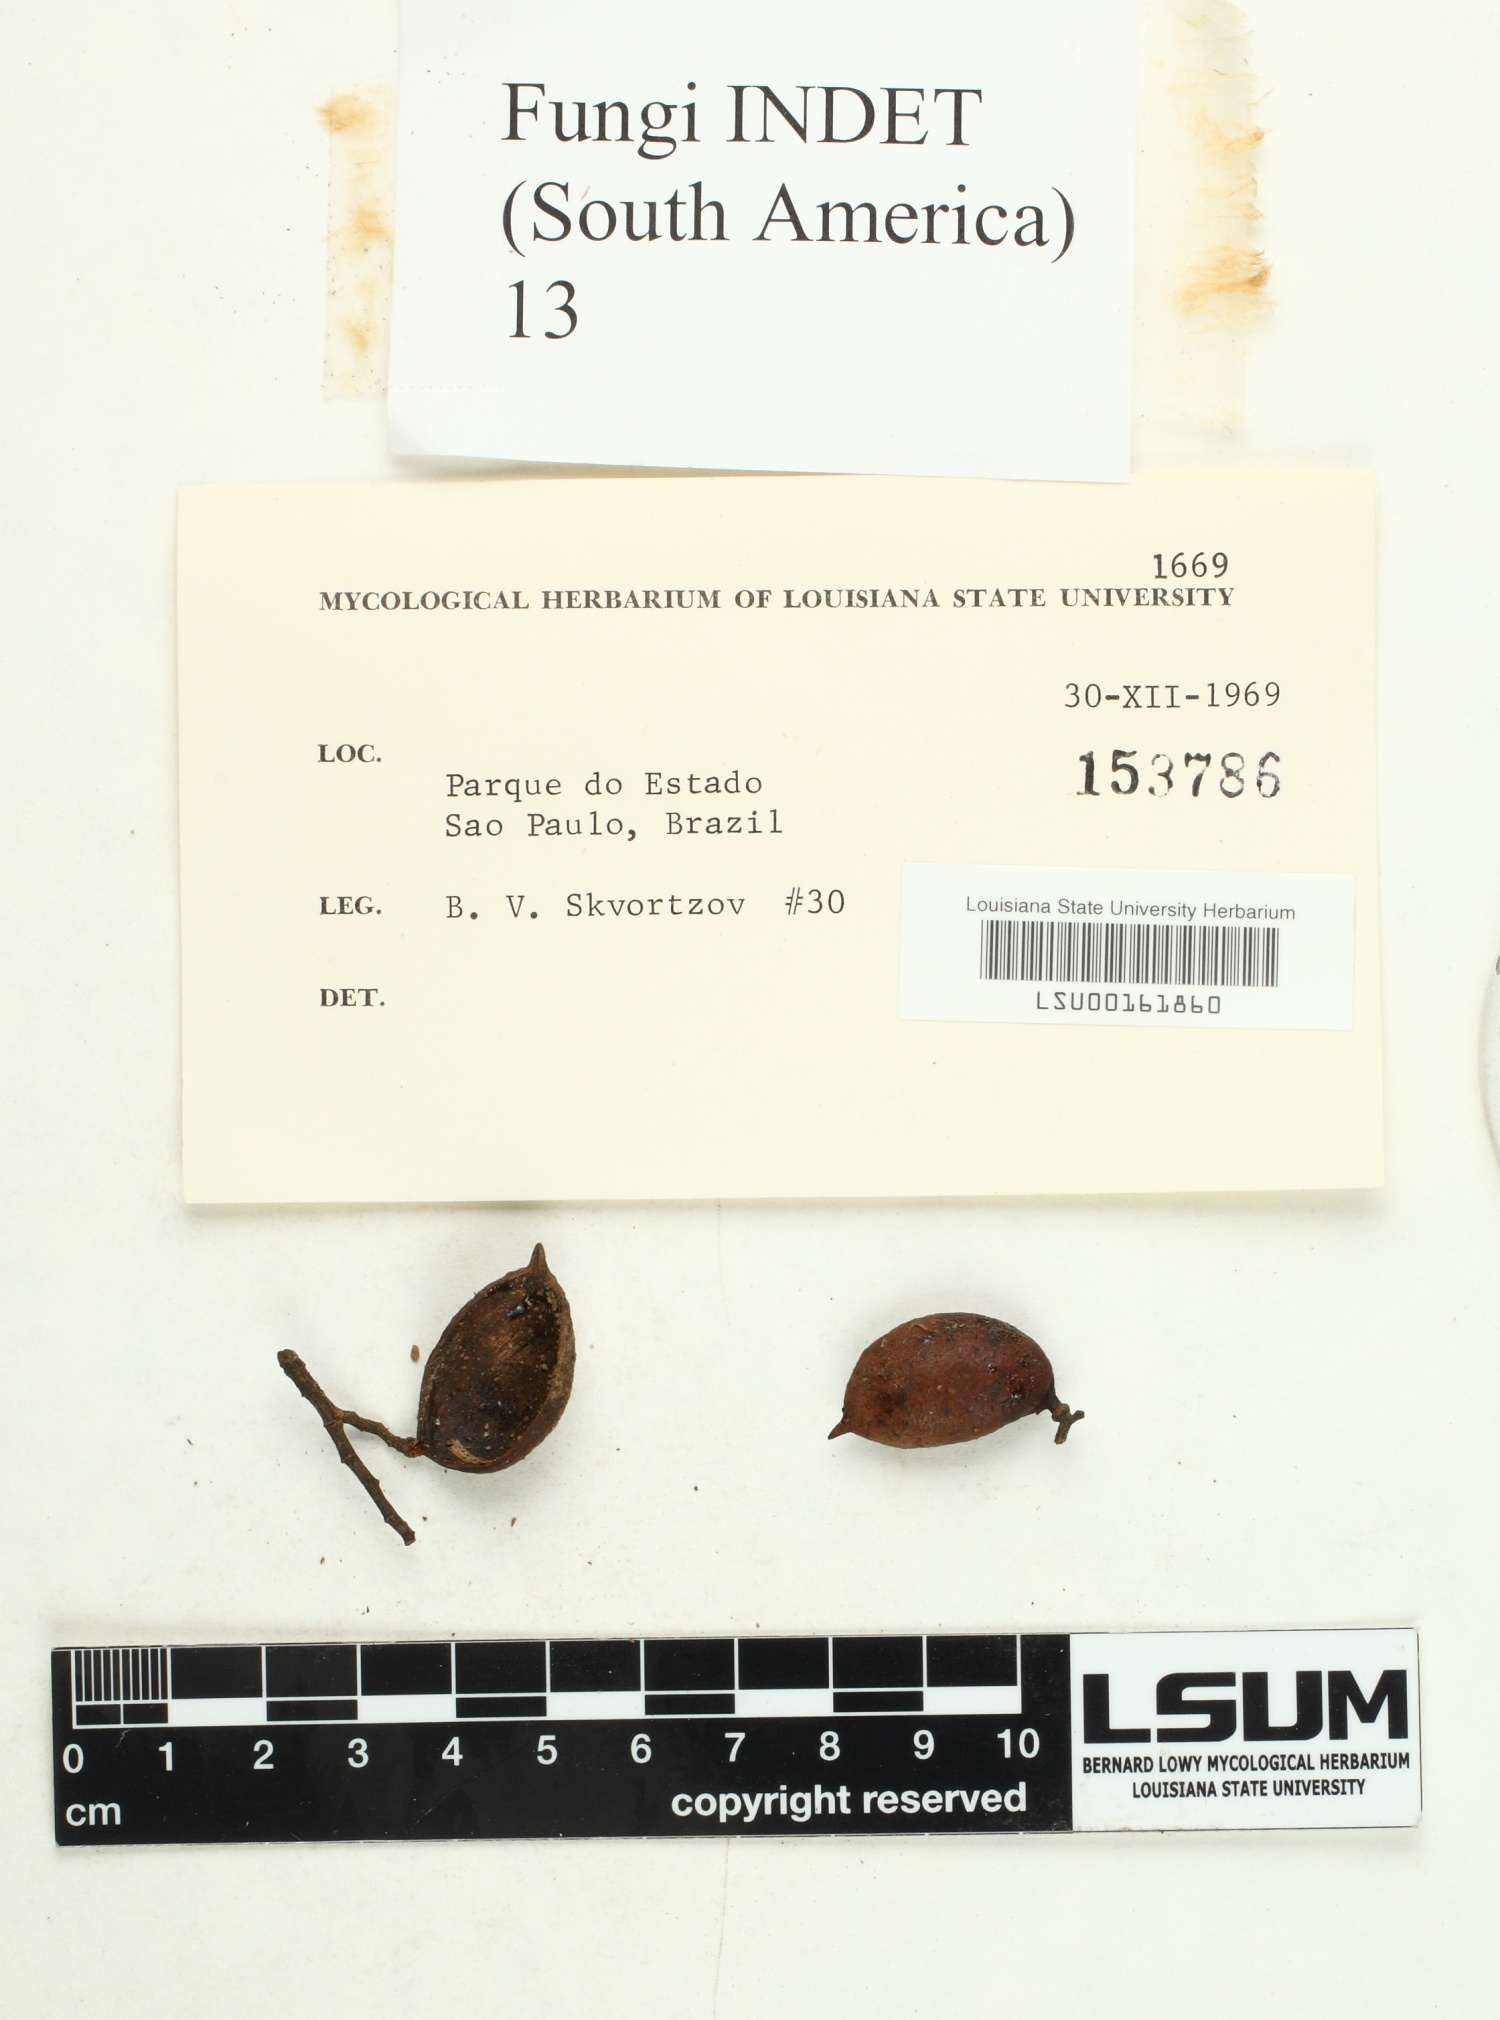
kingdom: Fungi
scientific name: Fungi
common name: Fungi
